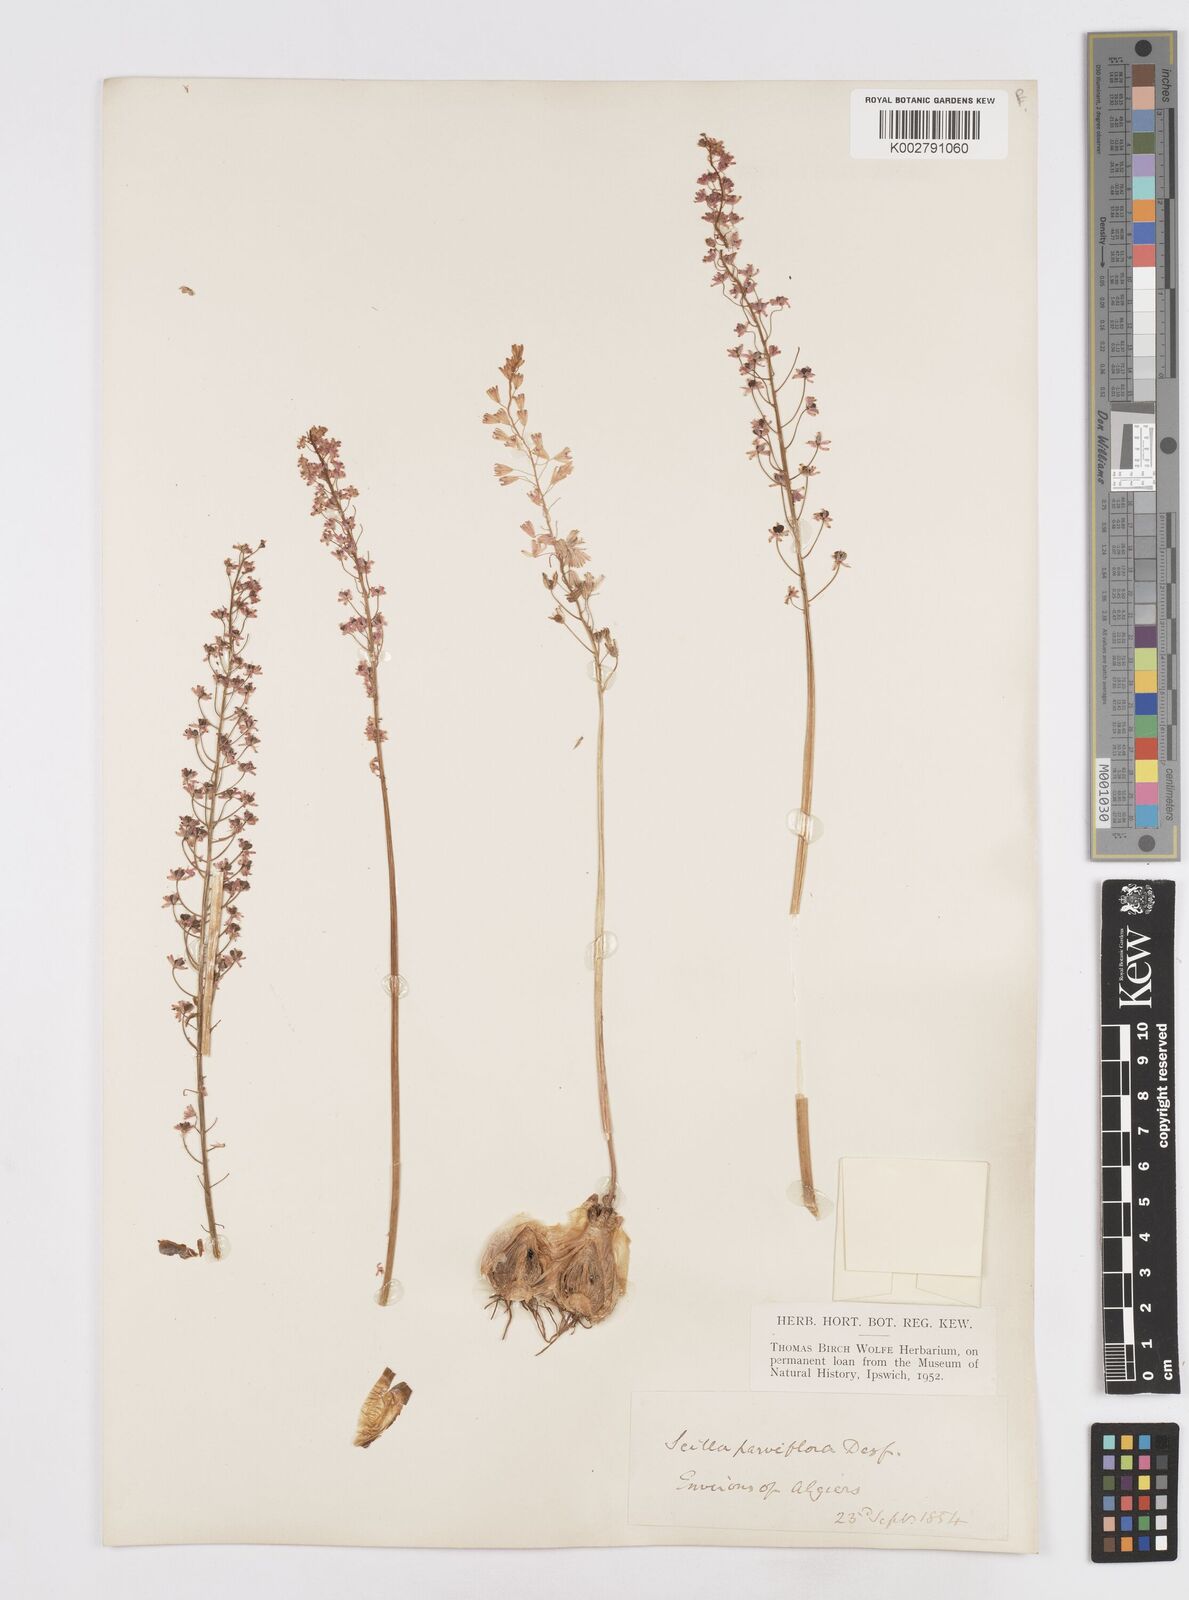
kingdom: Plantae
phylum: Tracheophyta
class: Liliopsida
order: Asparagales
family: Asparagaceae
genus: Barnardia
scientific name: Barnardia numidica
